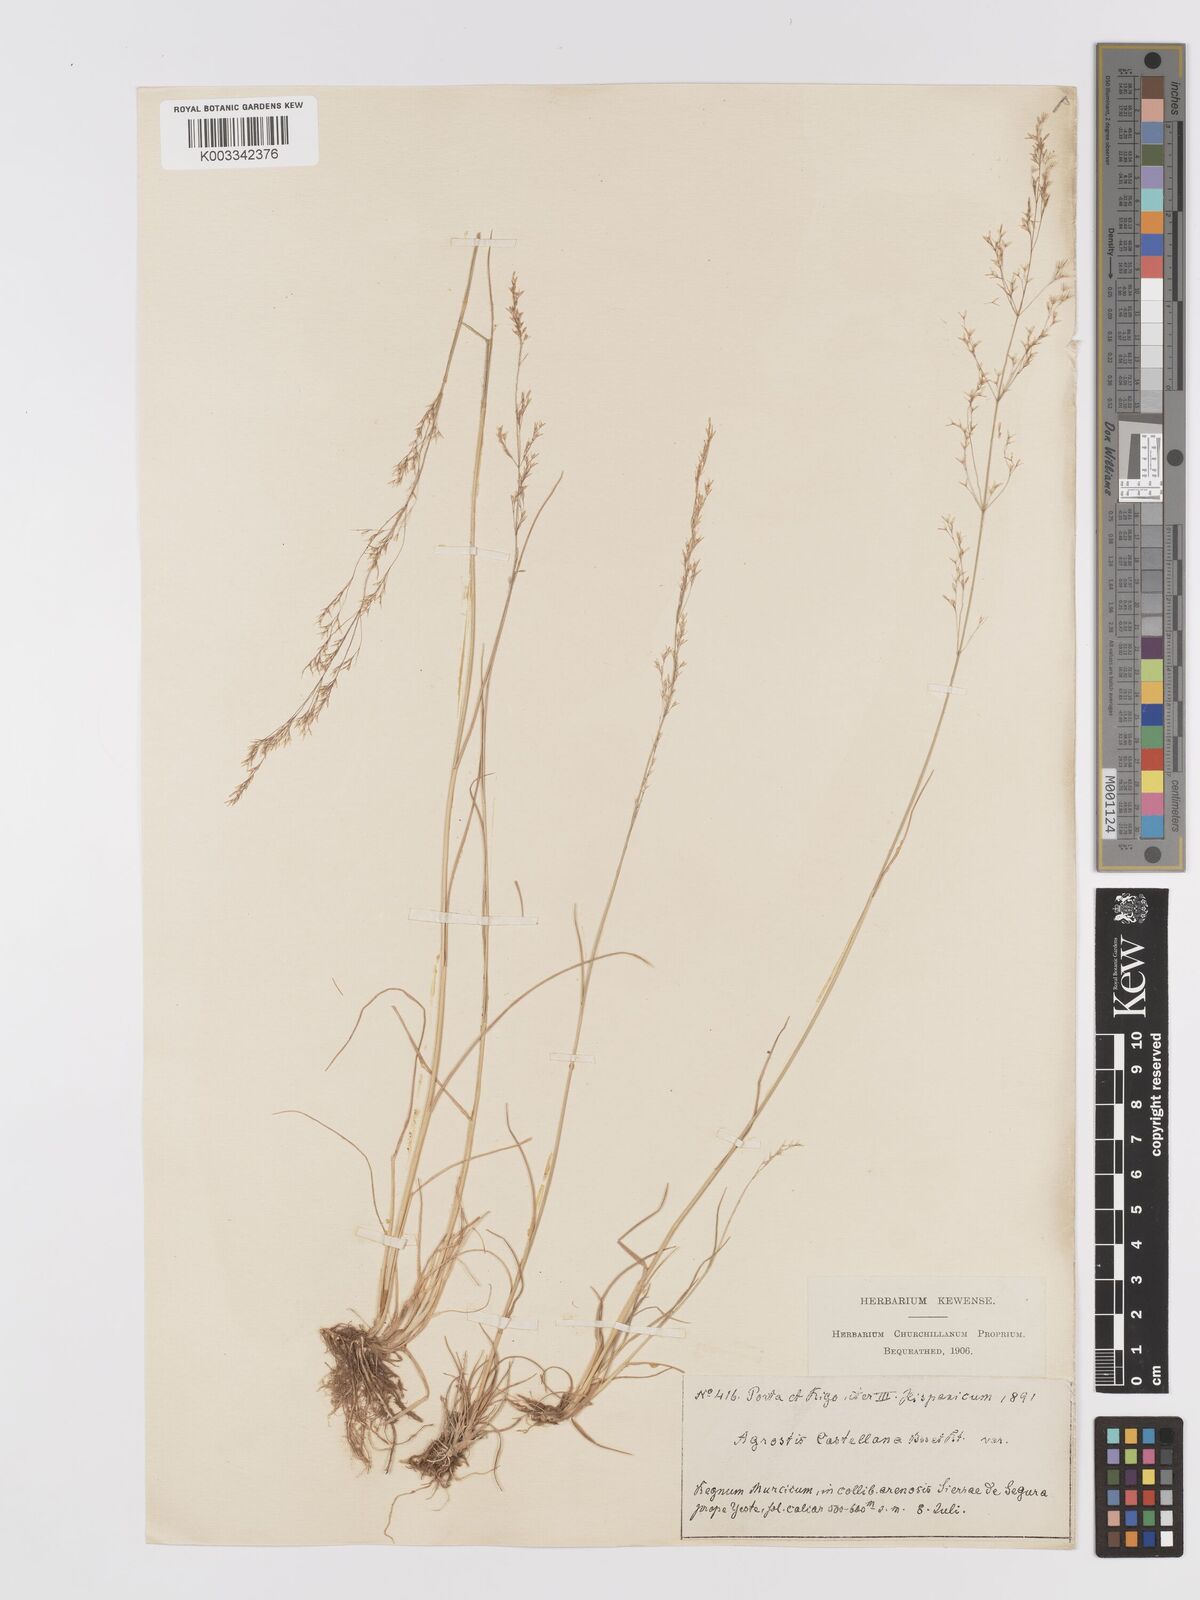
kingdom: Plantae
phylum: Tracheophyta
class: Liliopsida
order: Poales
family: Poaceae
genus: Agrostis
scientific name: Agrostis castellana
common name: Highland bent
